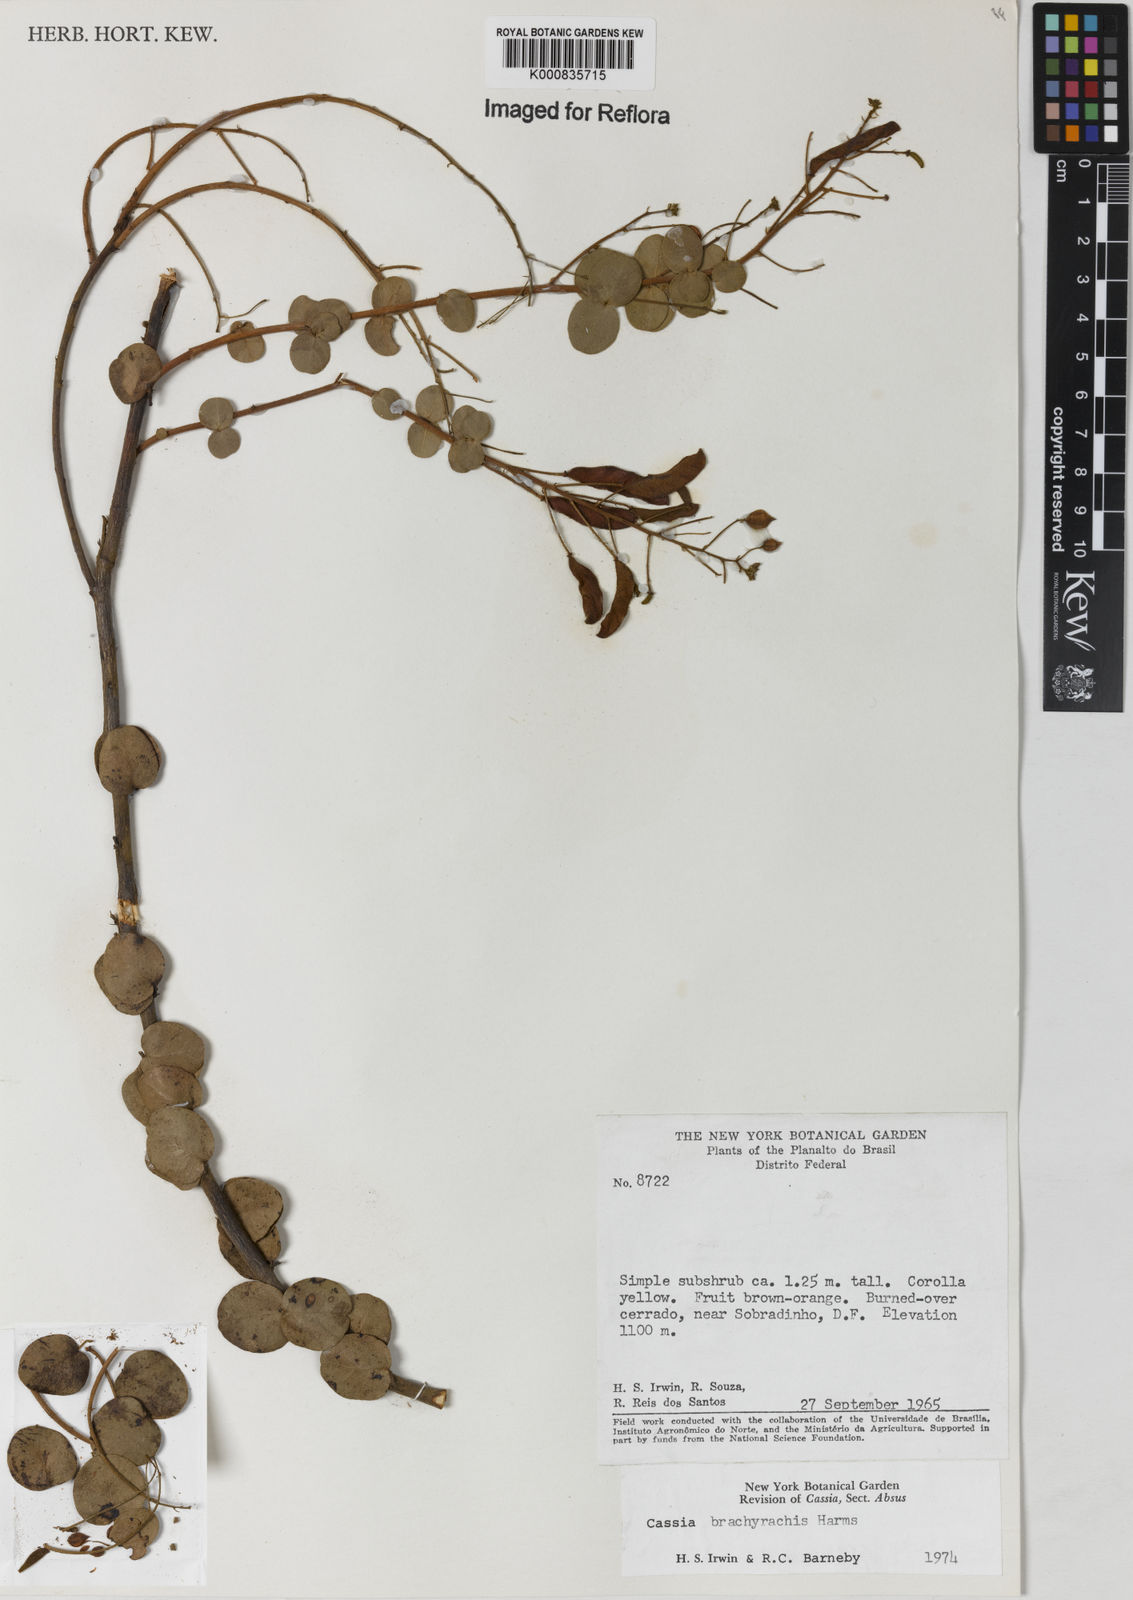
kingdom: Plantae
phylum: Tracheophyta
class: Magnoliopsida
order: Fabales
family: Fabaceae
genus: Chamaecrista
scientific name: Chamaecrista brachyrachis
